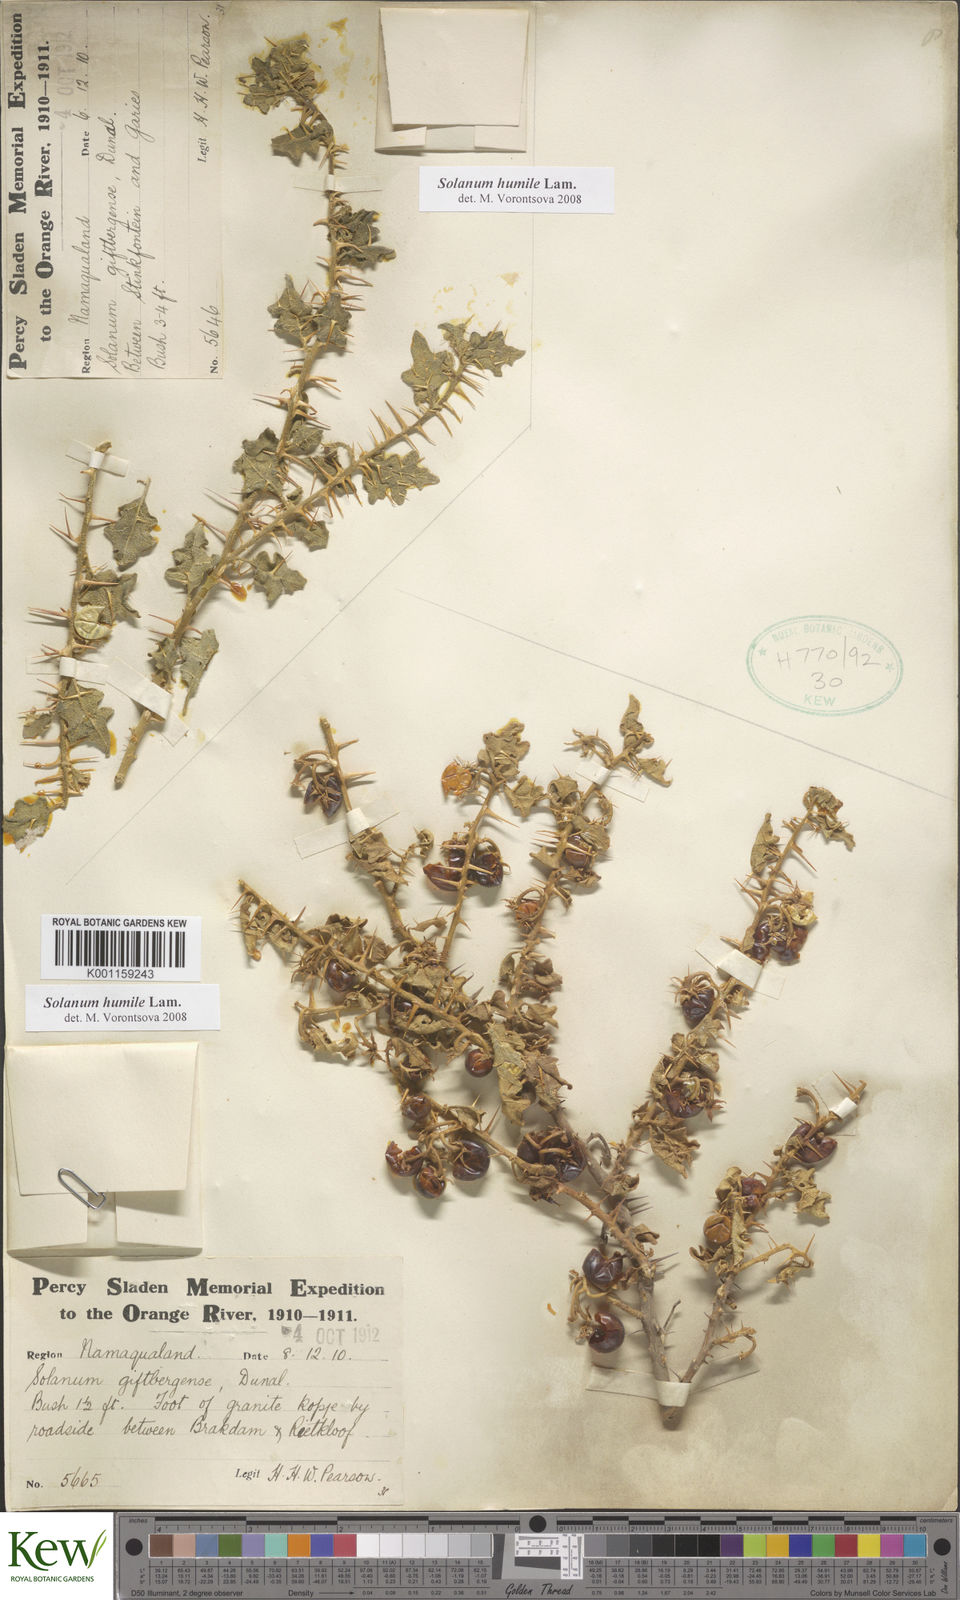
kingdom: Plantae
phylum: Tracheophyta
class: Magnoliopsida
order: Solanales
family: Solanaceae
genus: Solanum
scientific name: Solanum humile
